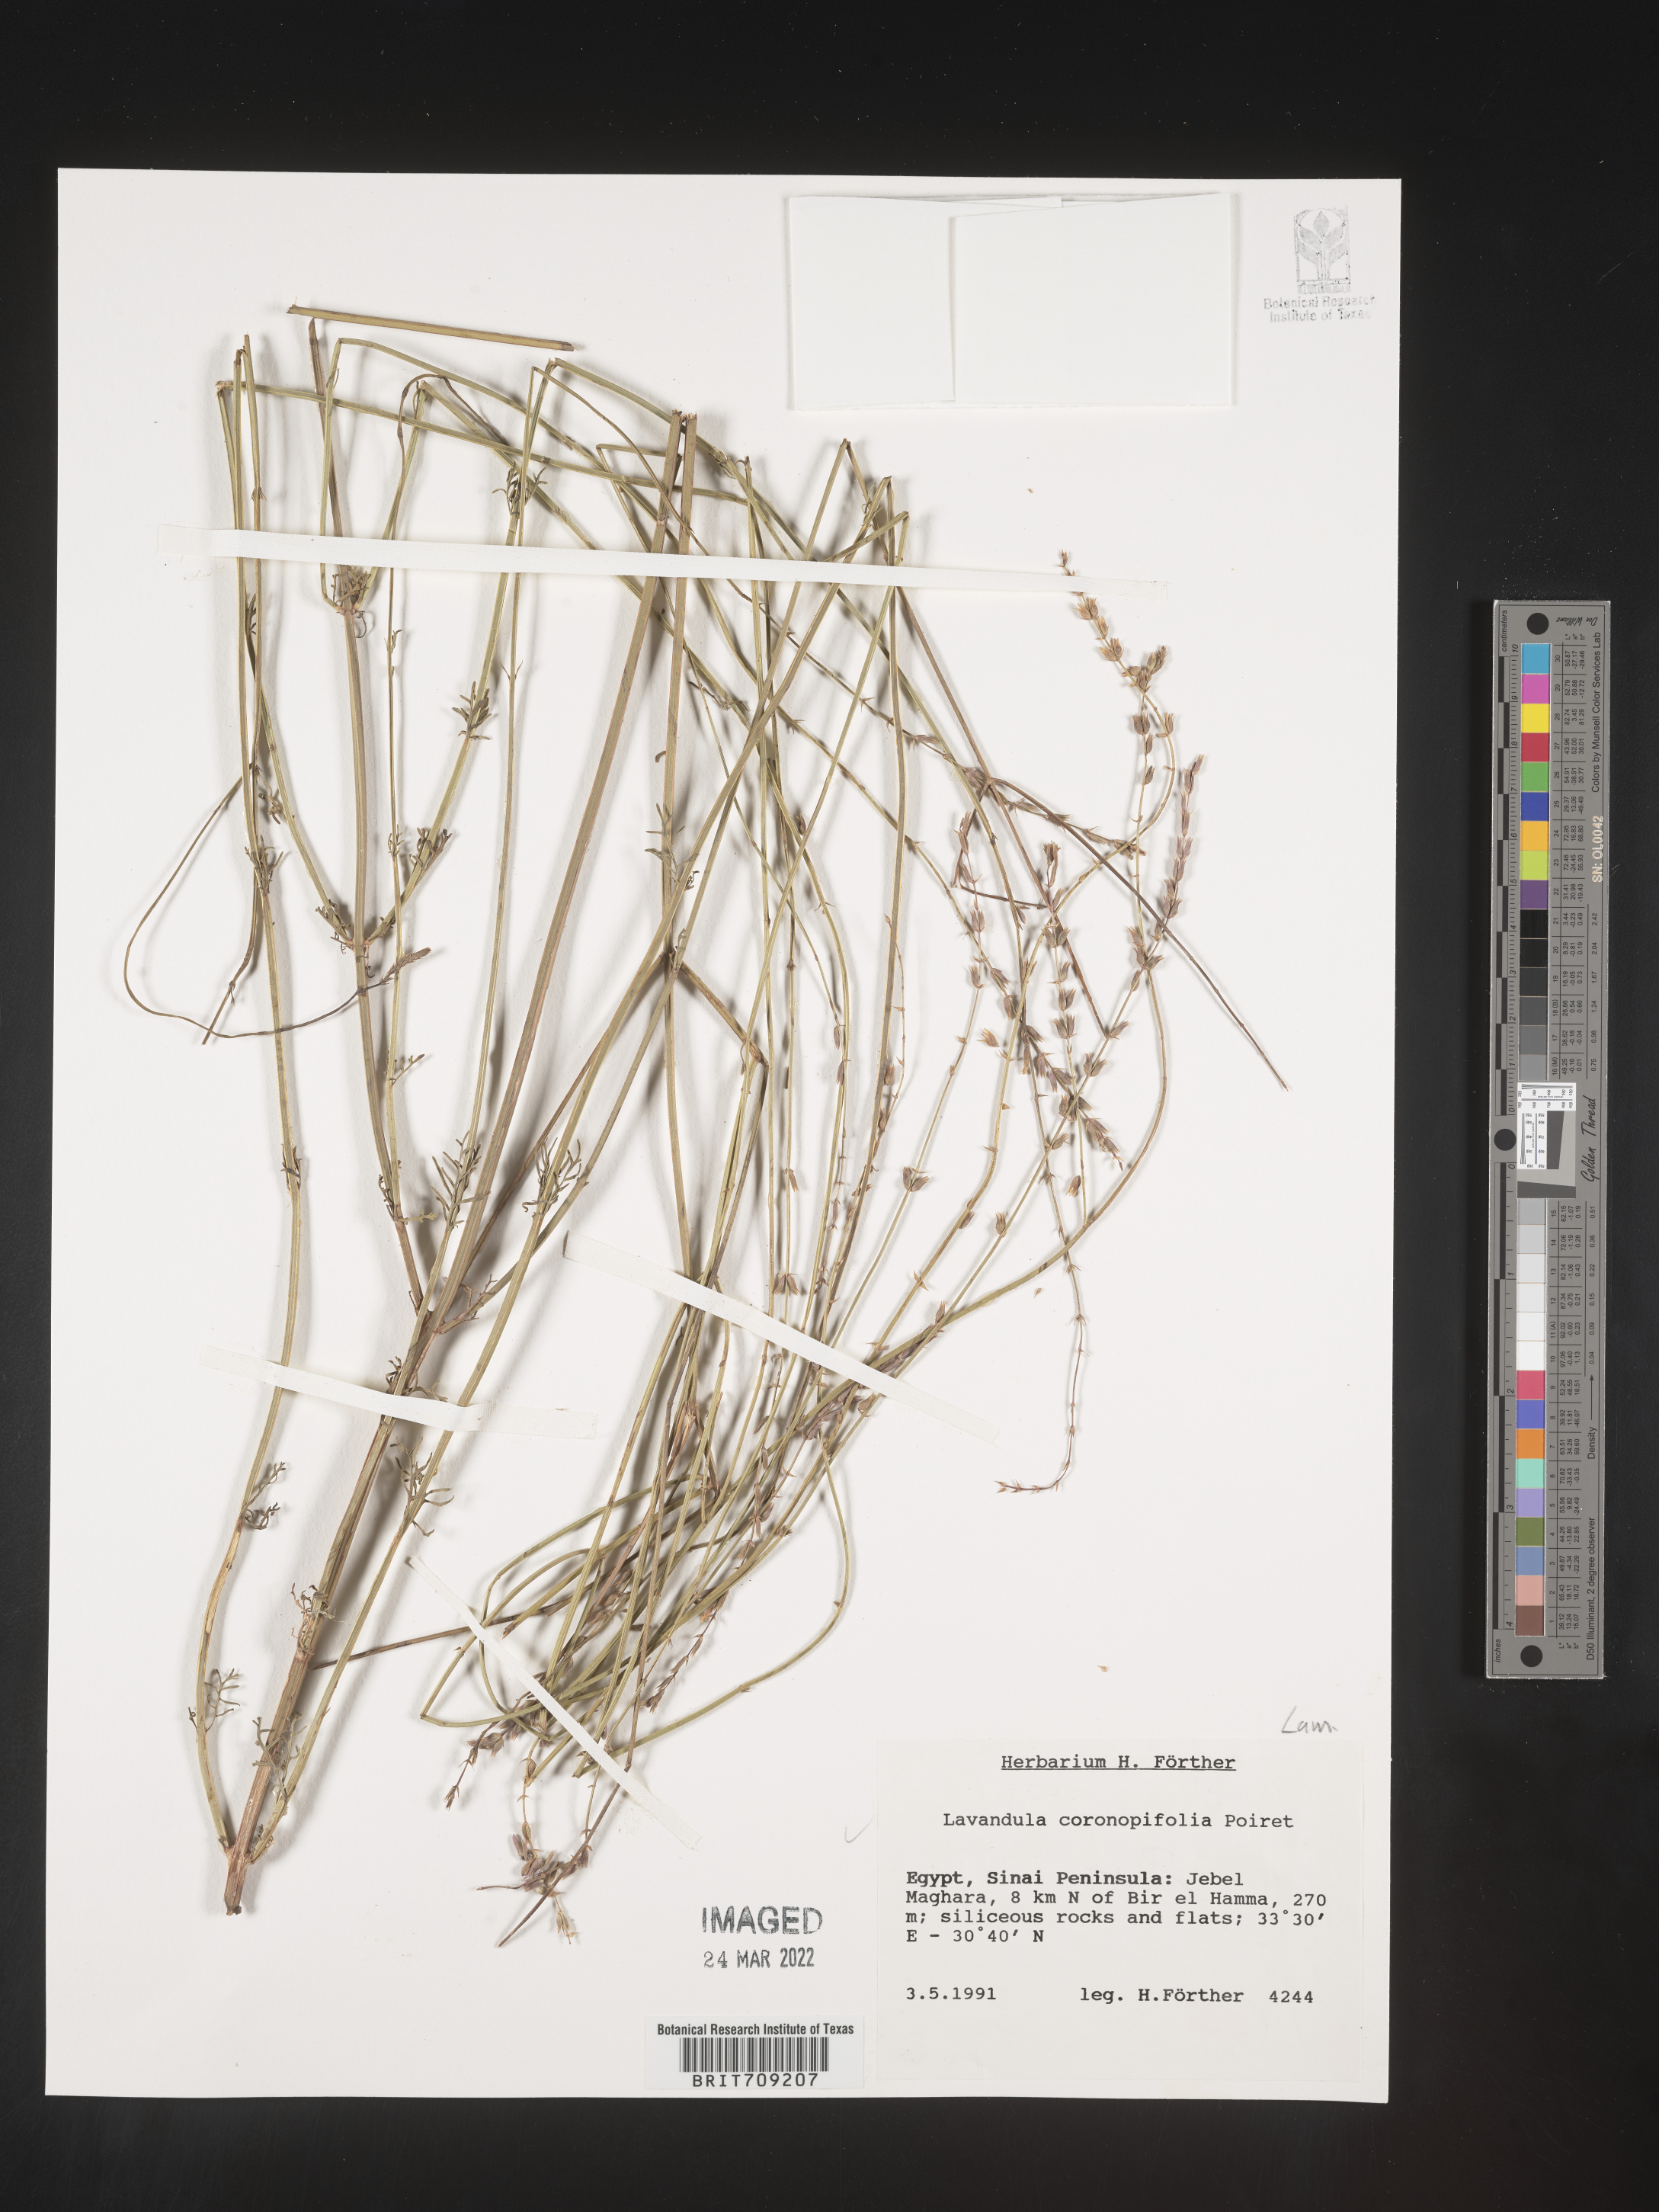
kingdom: Plantae
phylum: Tracheophyta
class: Magnoliopsida
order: Lamiales
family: Lamiaceae
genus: Lavandula
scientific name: Lavandula
